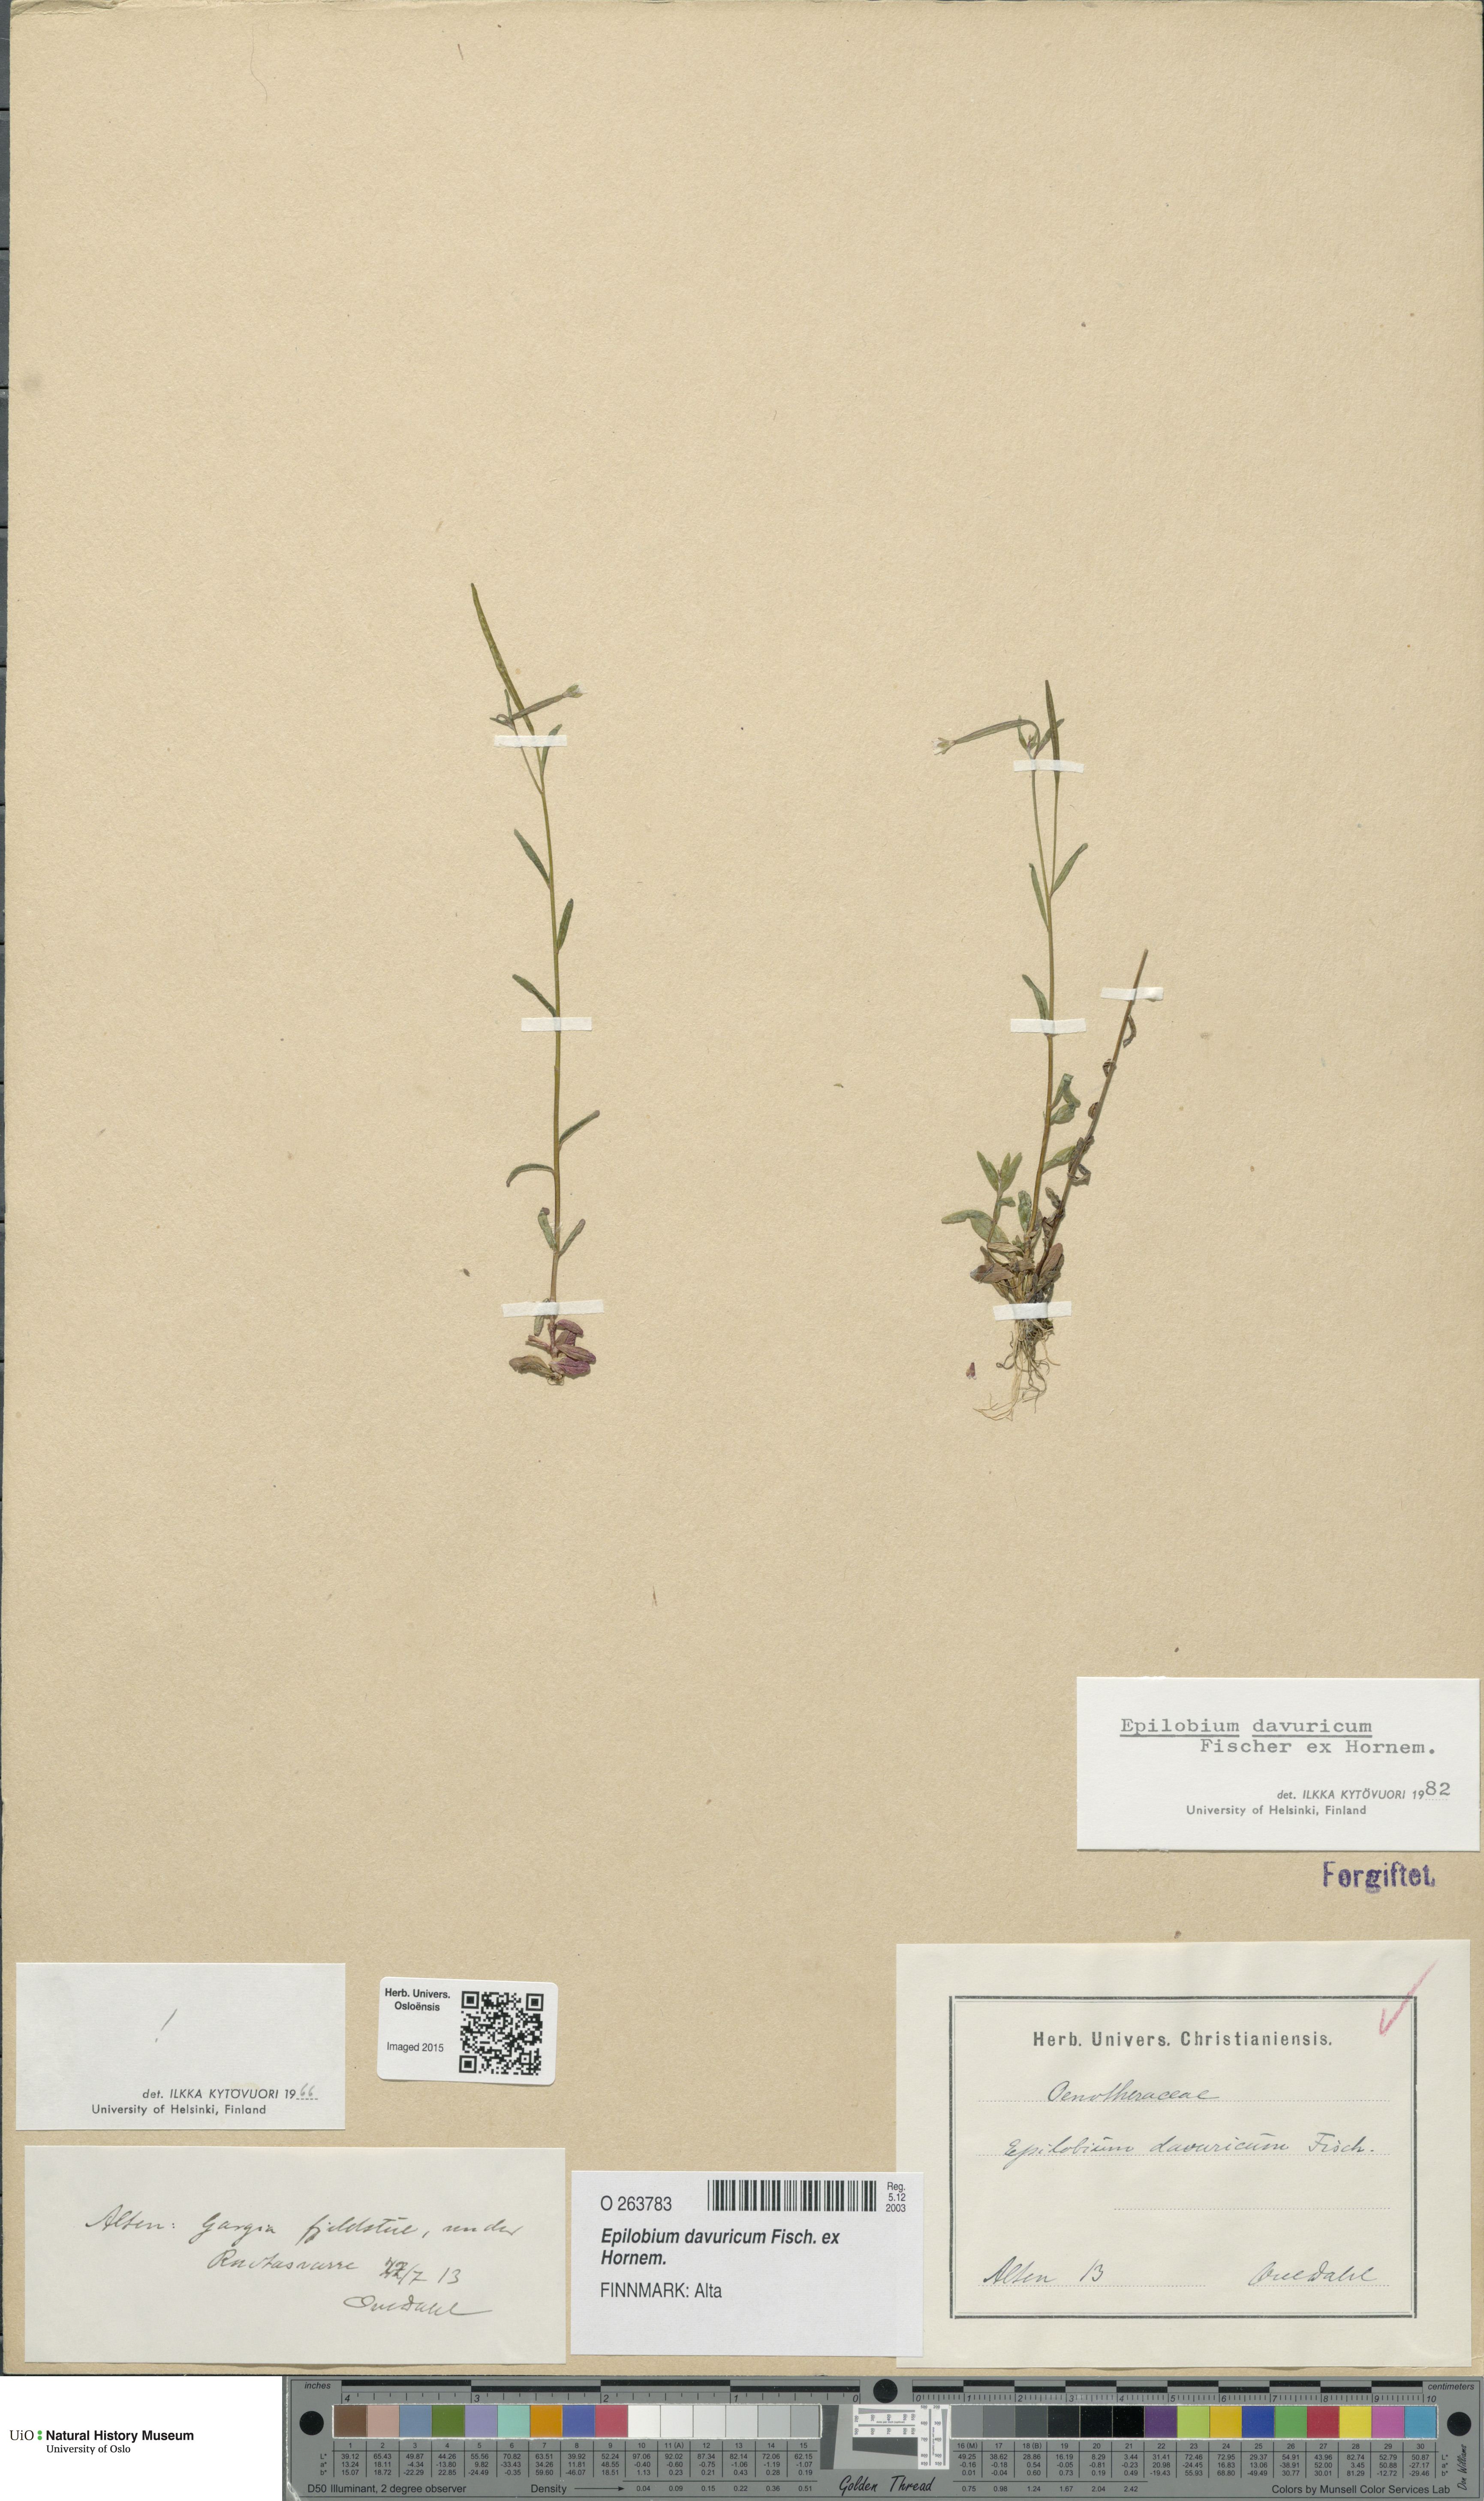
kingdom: Plantae
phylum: Tracheophyta
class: Magnoliopsida
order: Myrtales
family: Onagraceae
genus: Epilobium
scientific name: Epilobium davuricum
